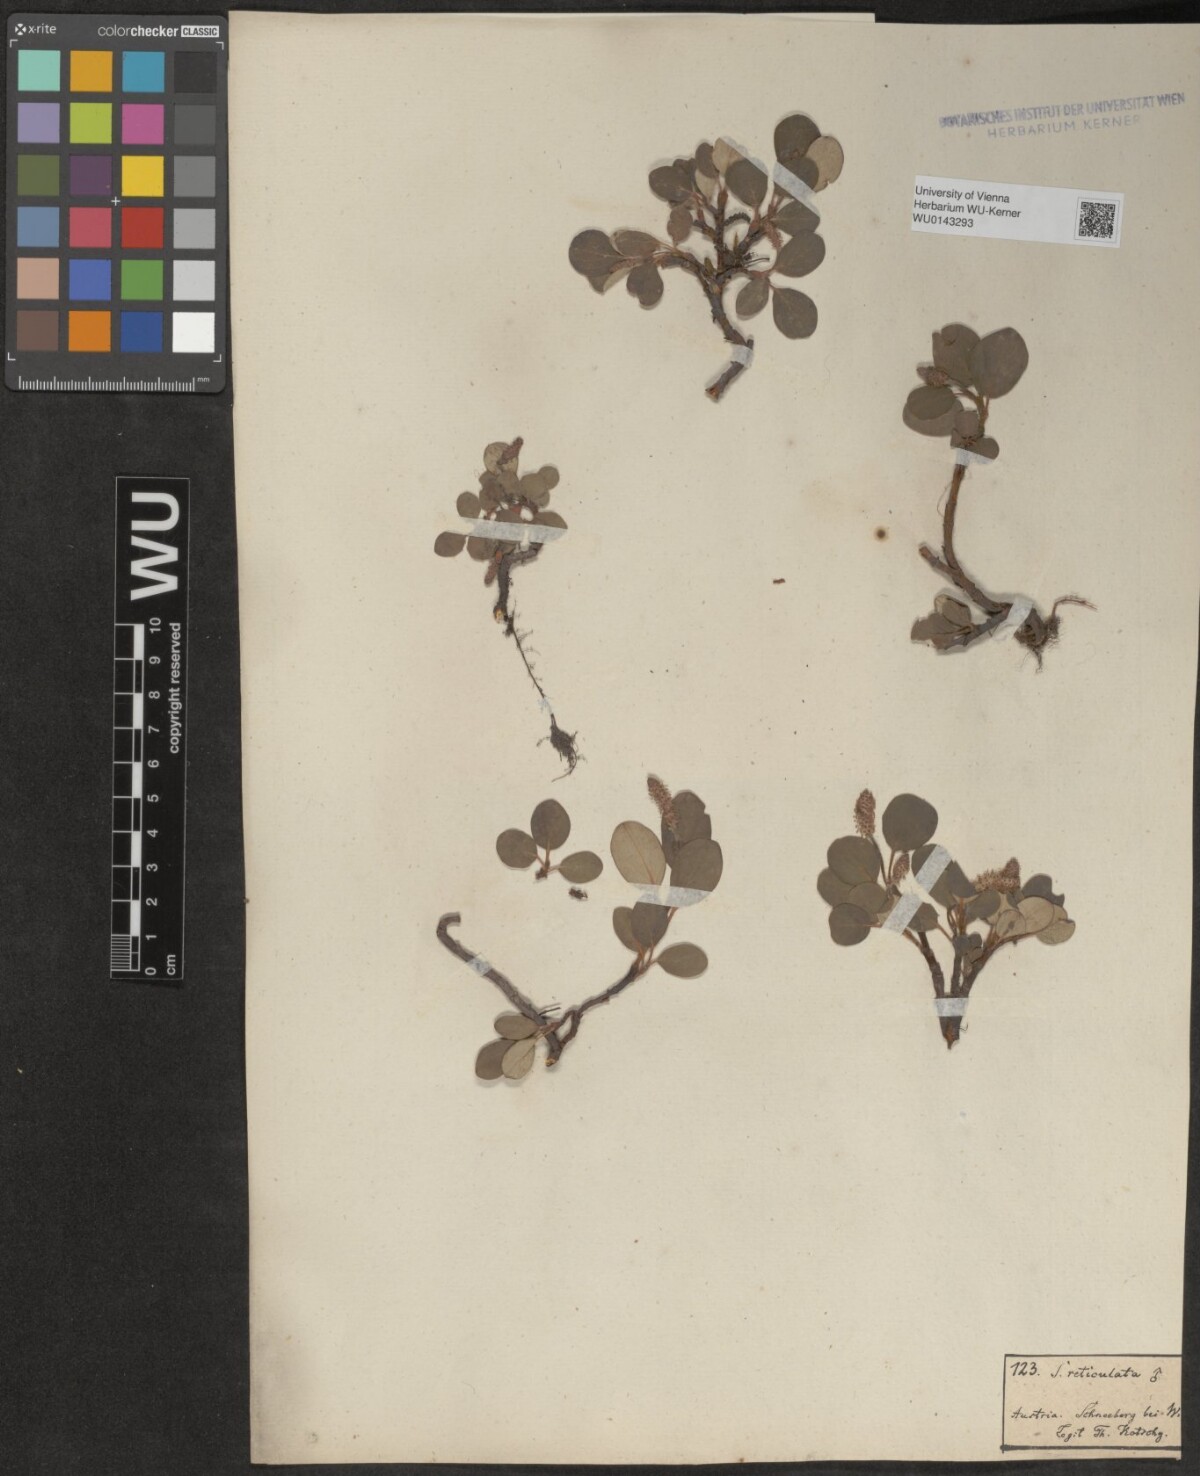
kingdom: Plantae
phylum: Tracheophyta
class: Magnoliopsida
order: Malpighiales
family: Salicaceae
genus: Salix
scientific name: Salix reticulata
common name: Net-leaved willow
